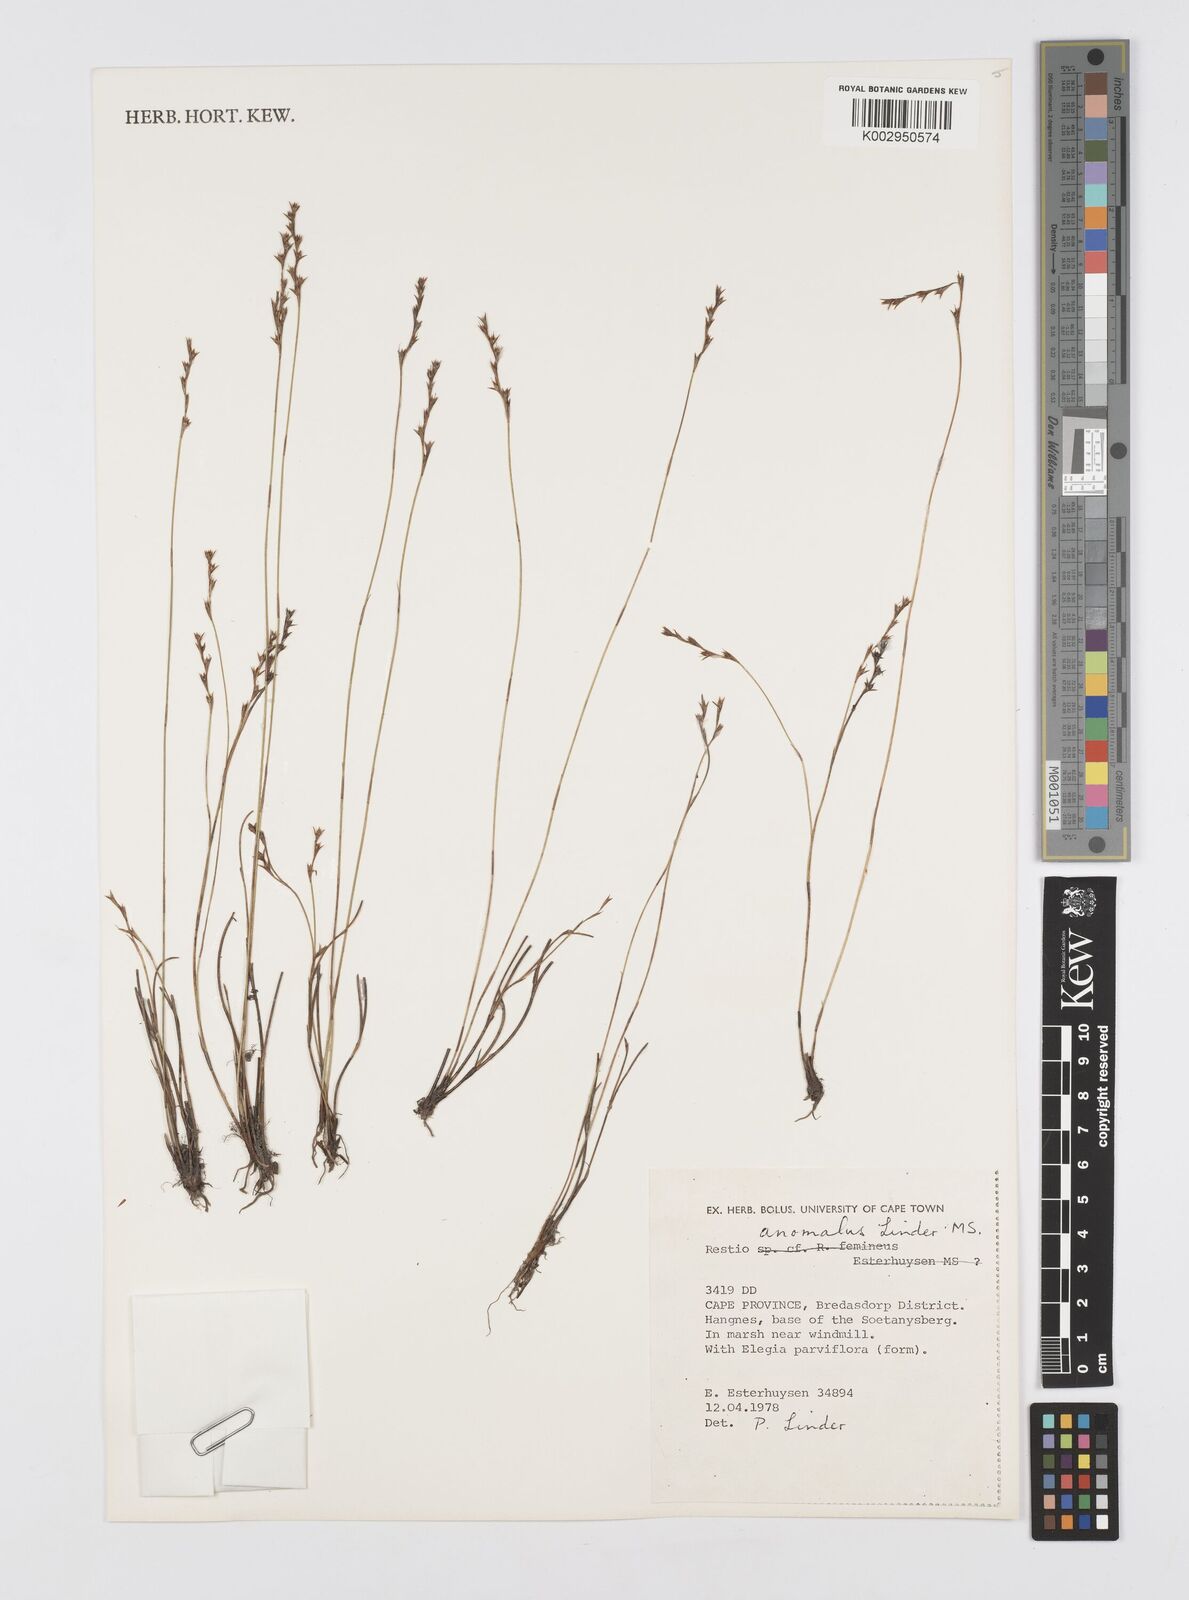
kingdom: Plantae
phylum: Tracheophyta
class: Liliopsida
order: Poales
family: Restionaceae
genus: Restio
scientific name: Restio anomalus
